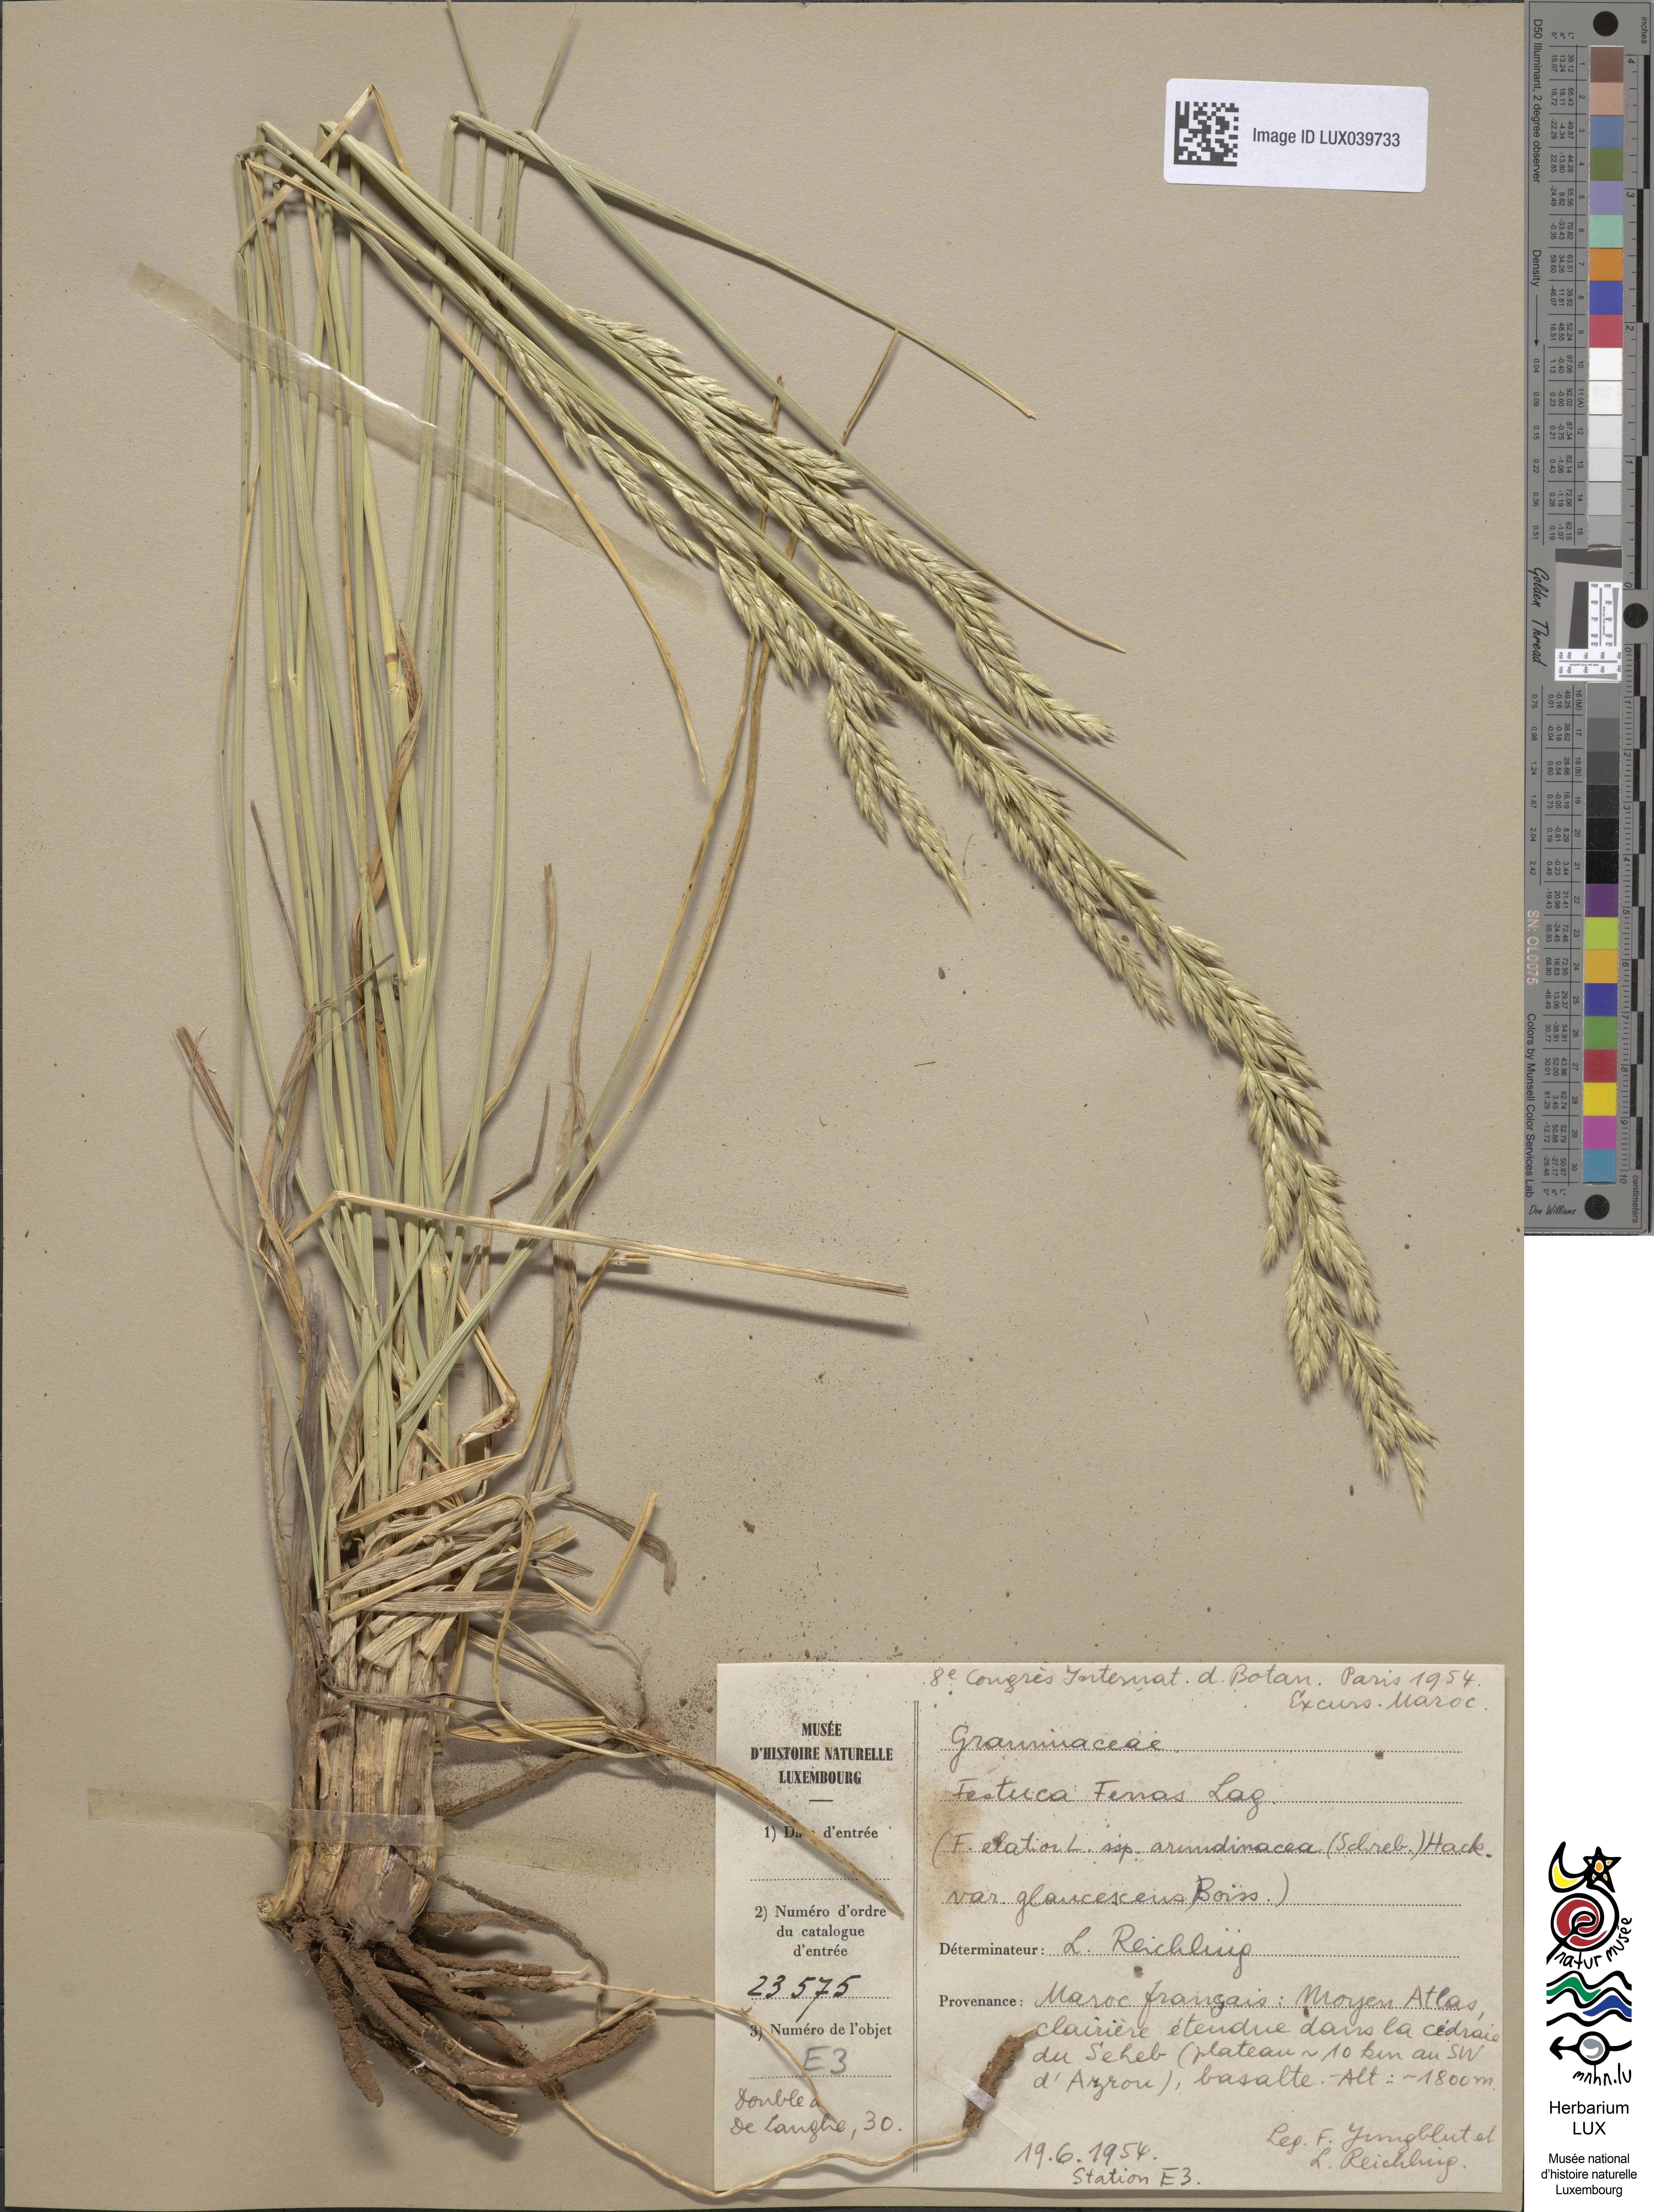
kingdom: Plantae
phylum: Tracheophyta
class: Liliopsida
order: Poales
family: Poaceae
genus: Lolium
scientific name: Lolium interruptum
